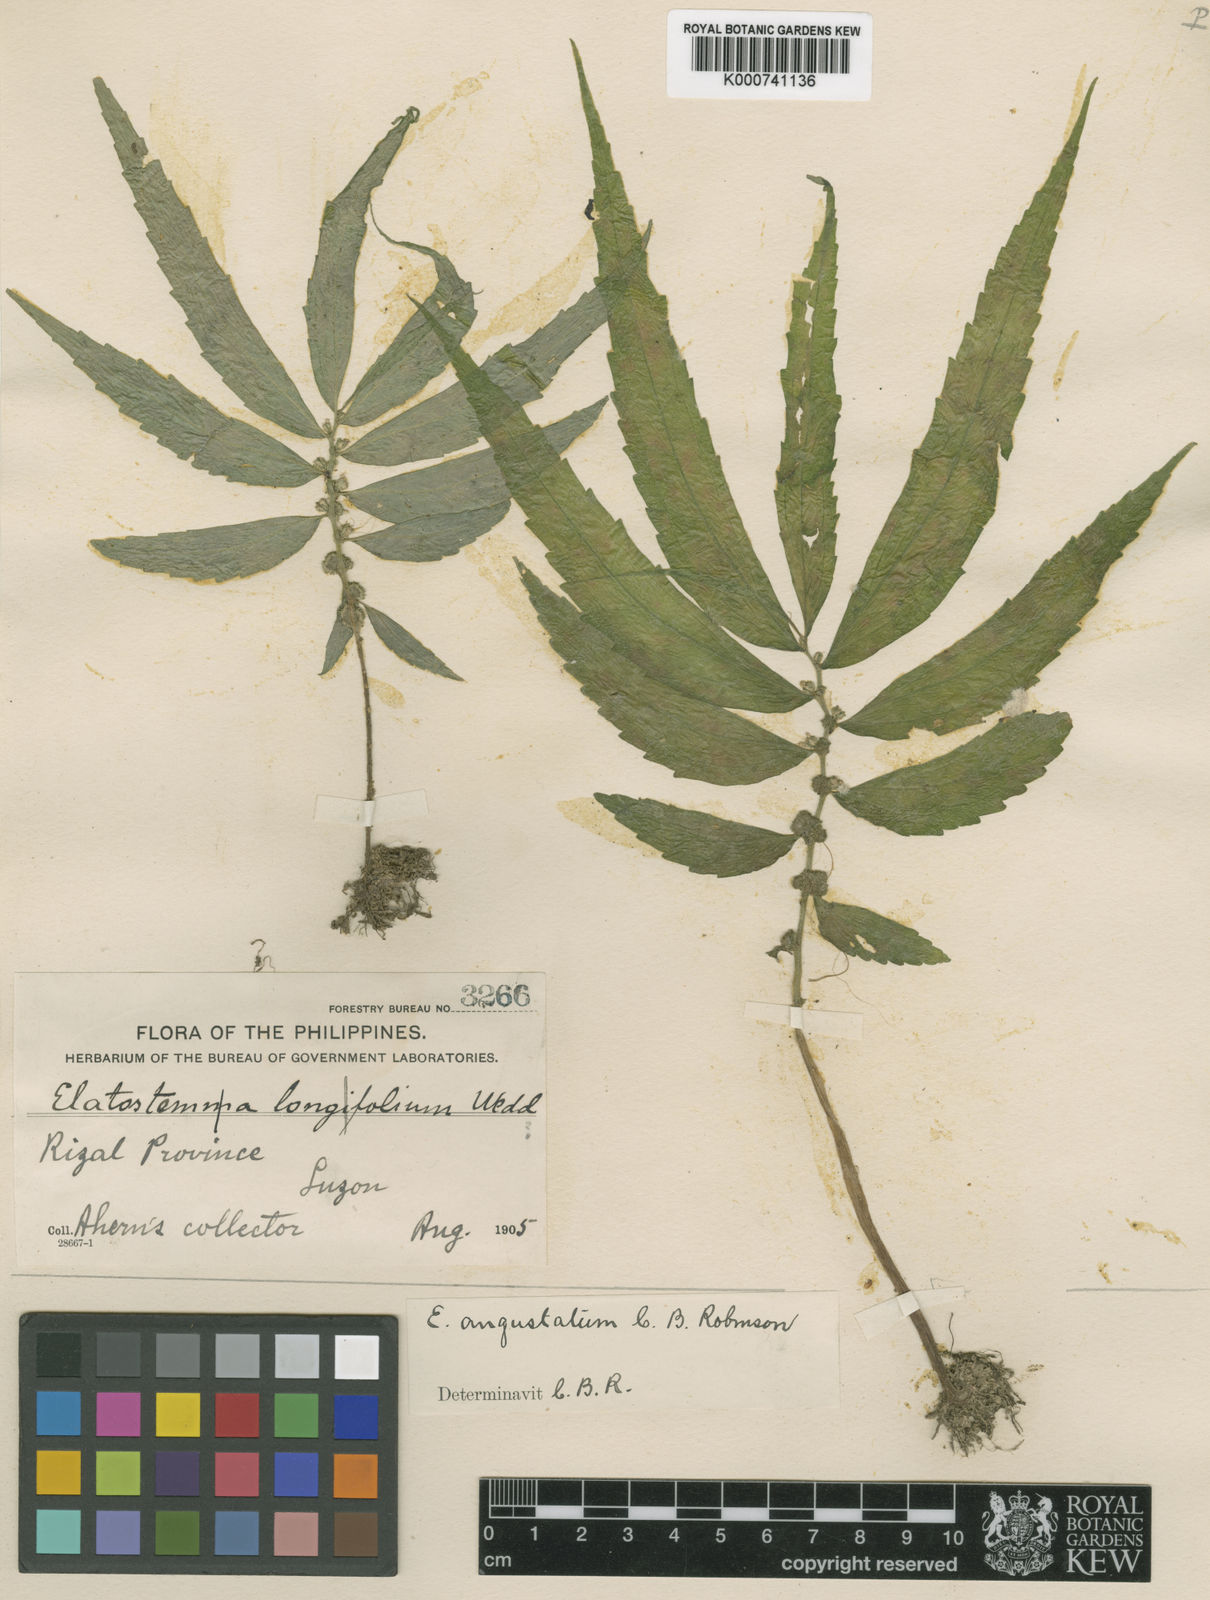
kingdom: Plantae
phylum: Tracheophyta
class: Magnoliopsida
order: Rosales
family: Urticaceae
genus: Elatostema
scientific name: Elatostema angustatum
